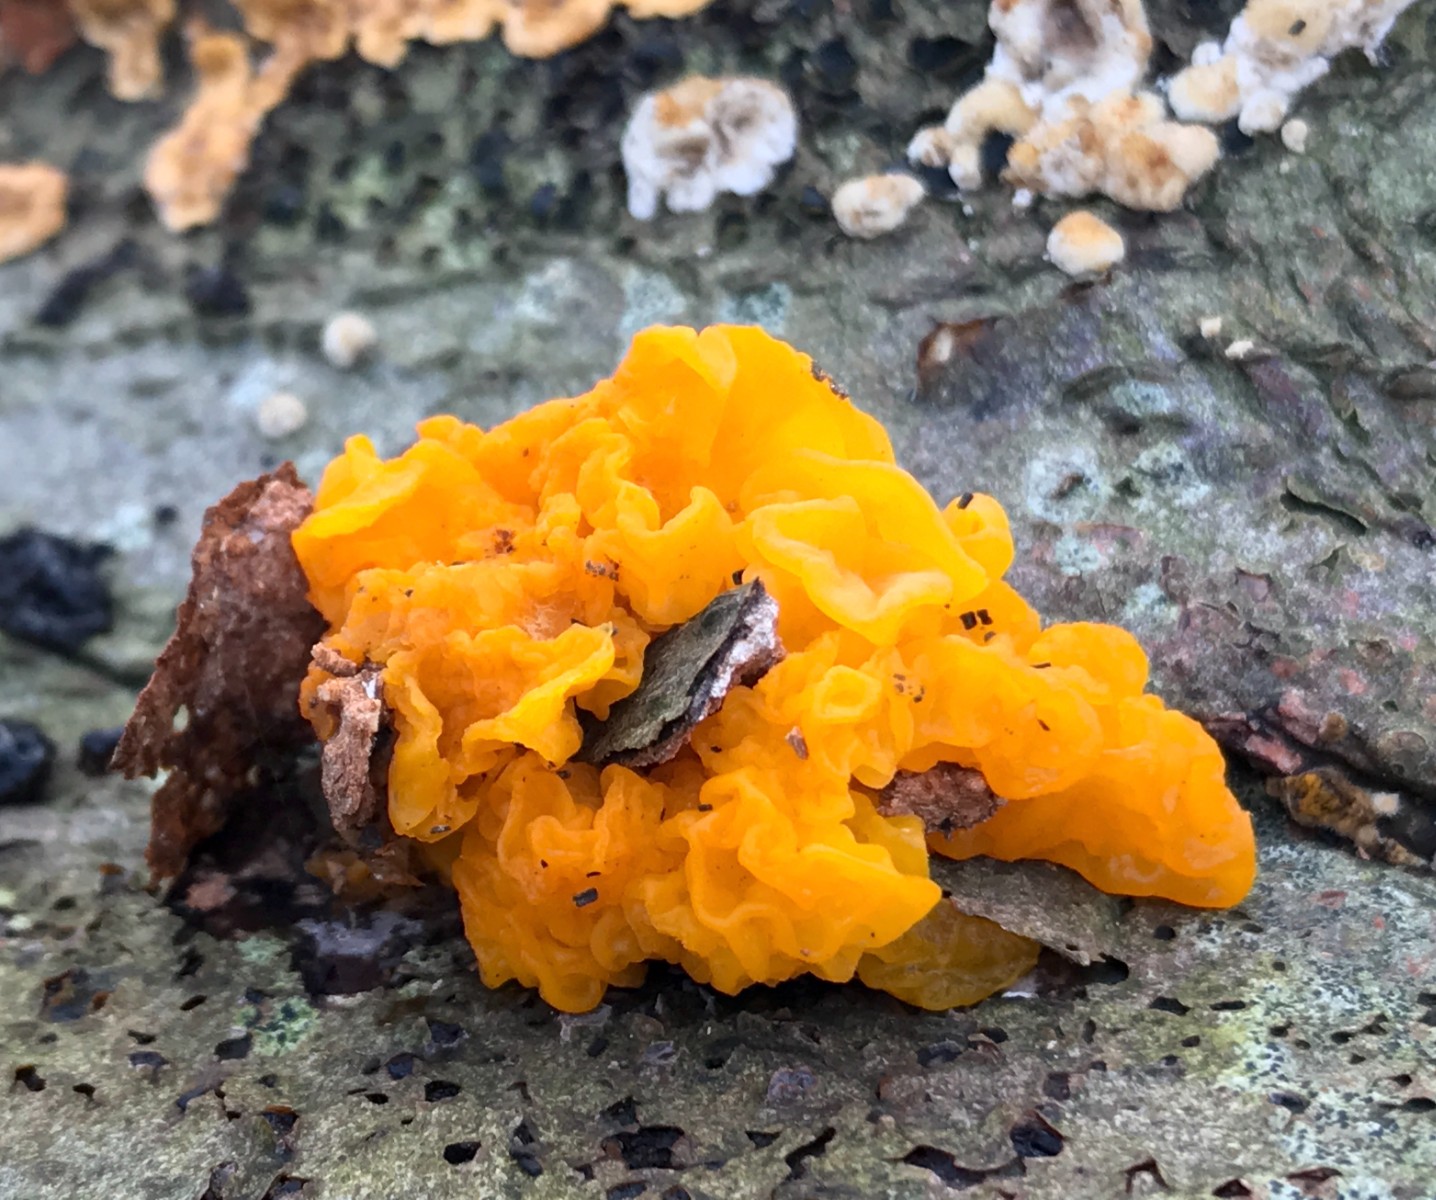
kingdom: Fungi
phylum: Basidiomycota
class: Tremellomycetes
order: Tremellales
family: Tremellaceae
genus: Tremella
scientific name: Tremella mesenterica
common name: gul bævresvamp
